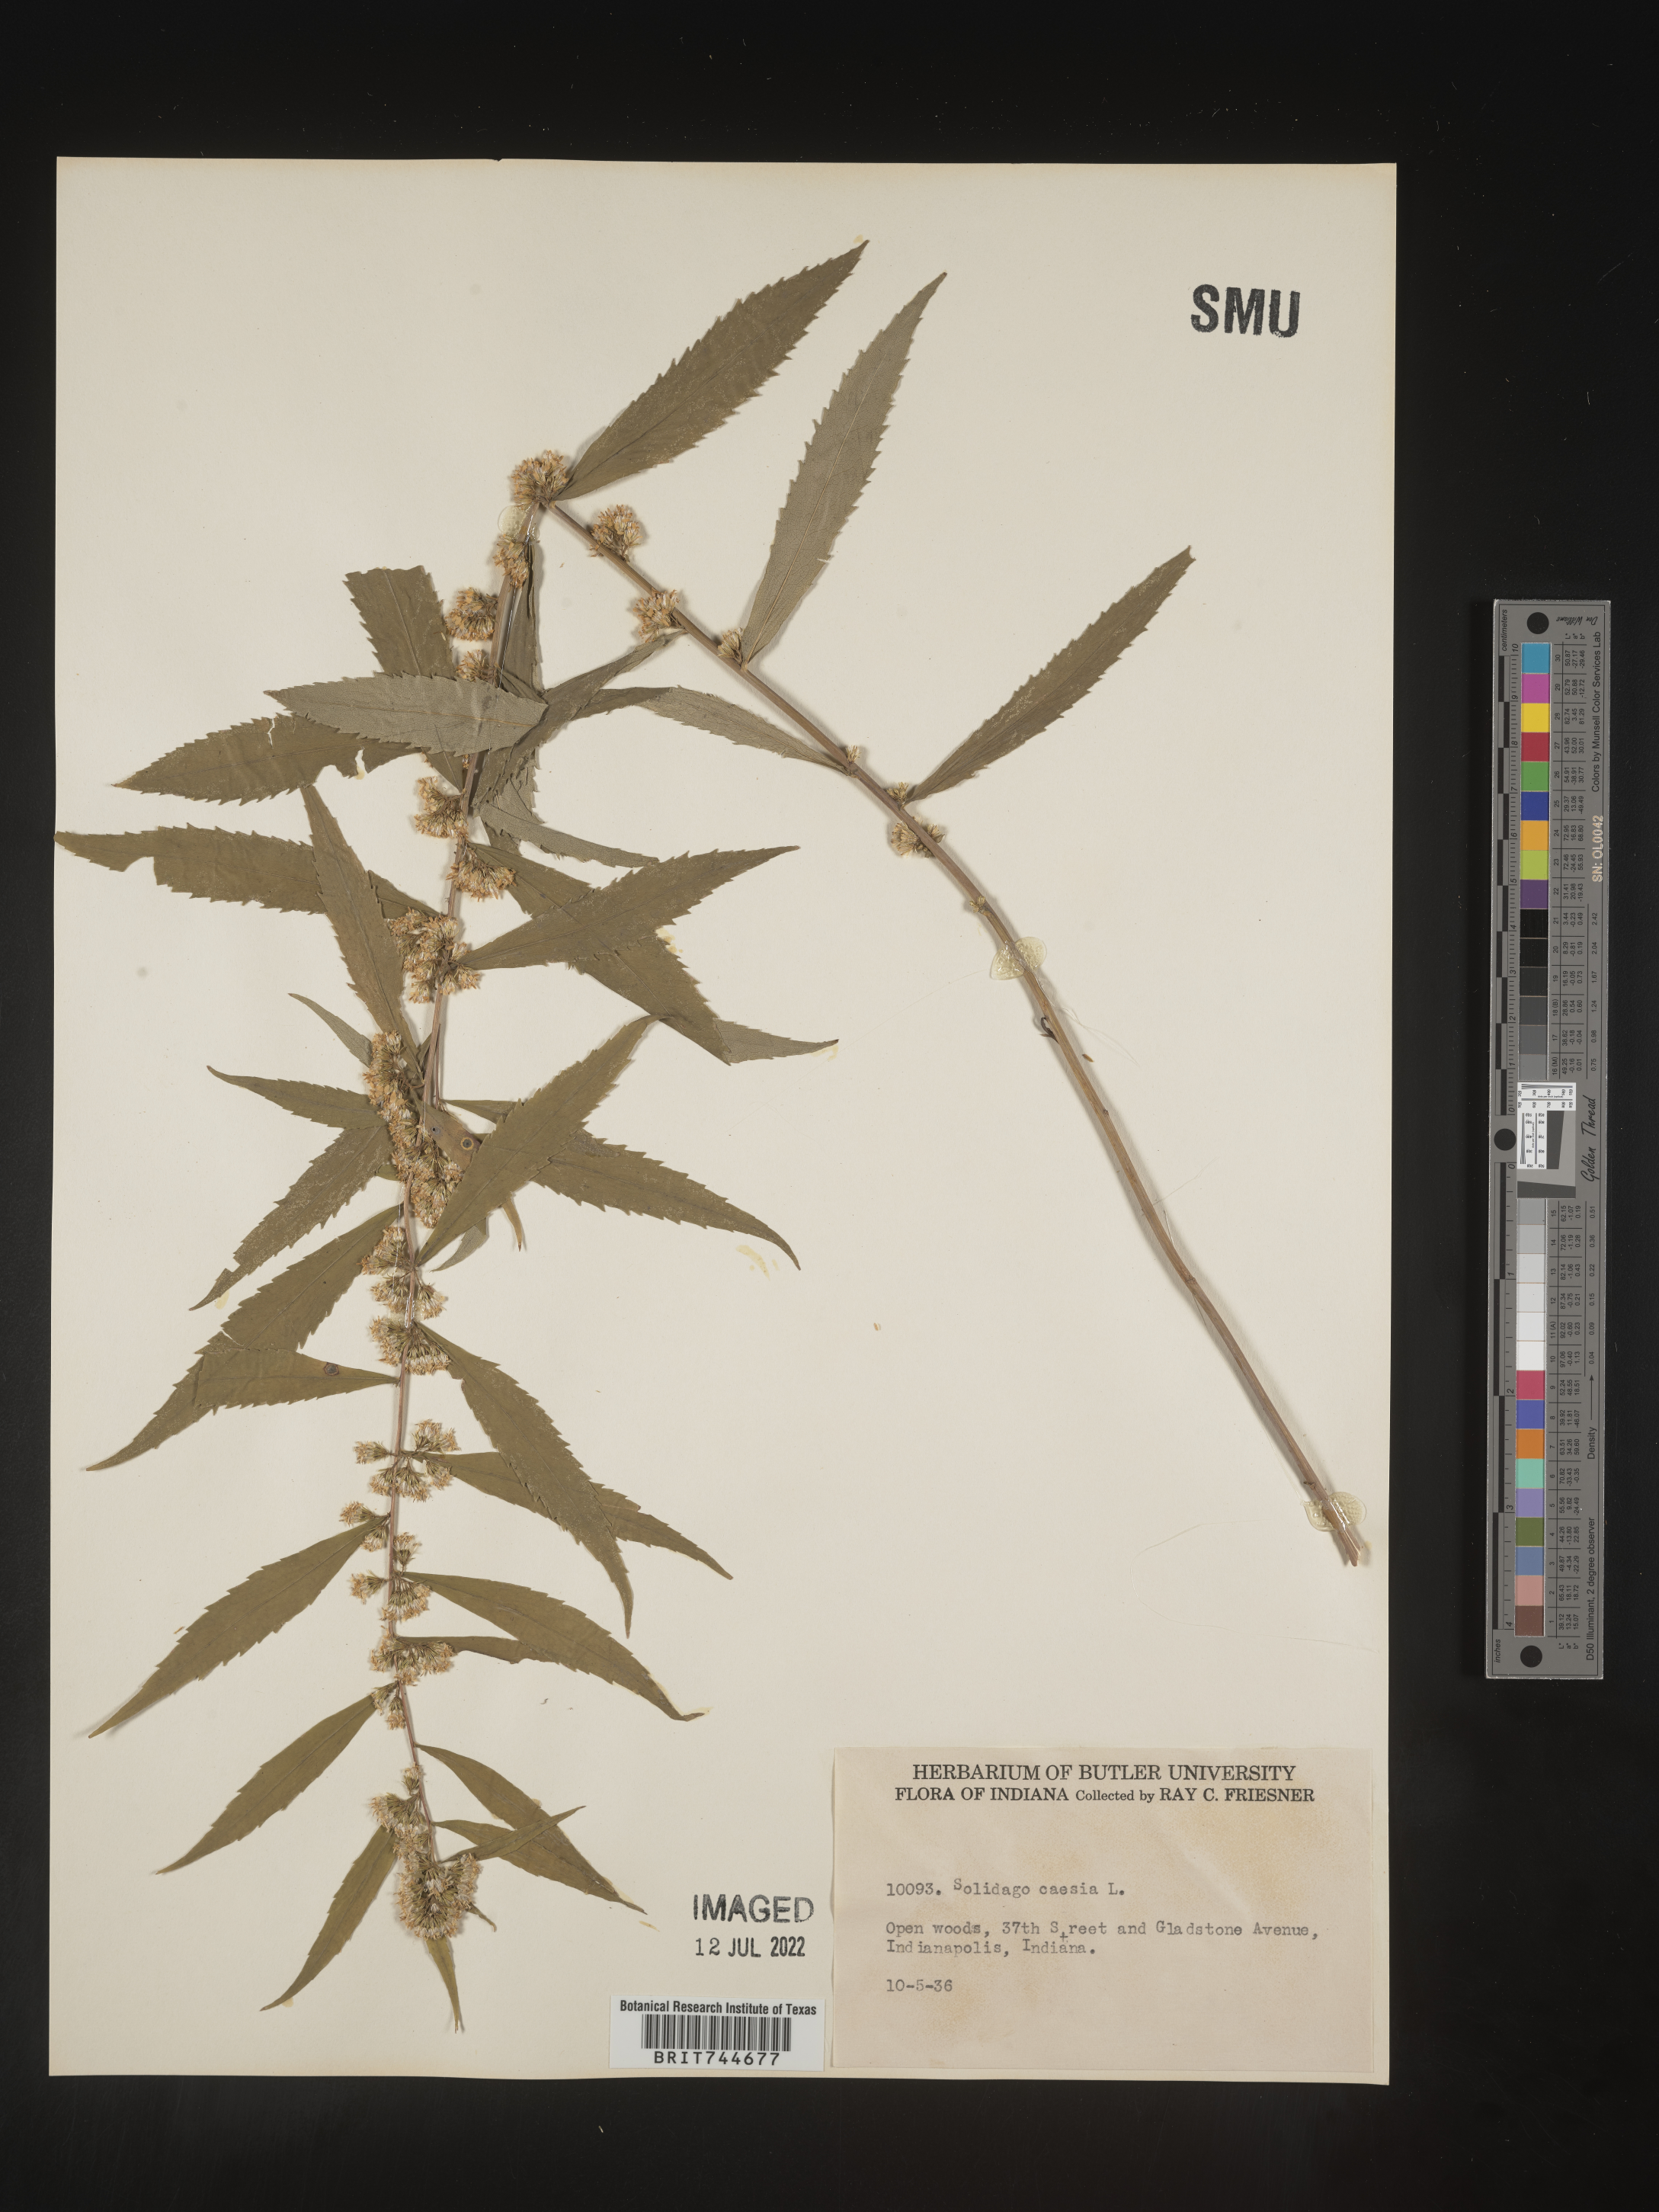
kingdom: Plantae
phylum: Tracheophyta
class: Magnoliopsida
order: Asterales
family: Asteraceae
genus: Solidago
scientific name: Solidago caesia
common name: Woodland goldenrod
